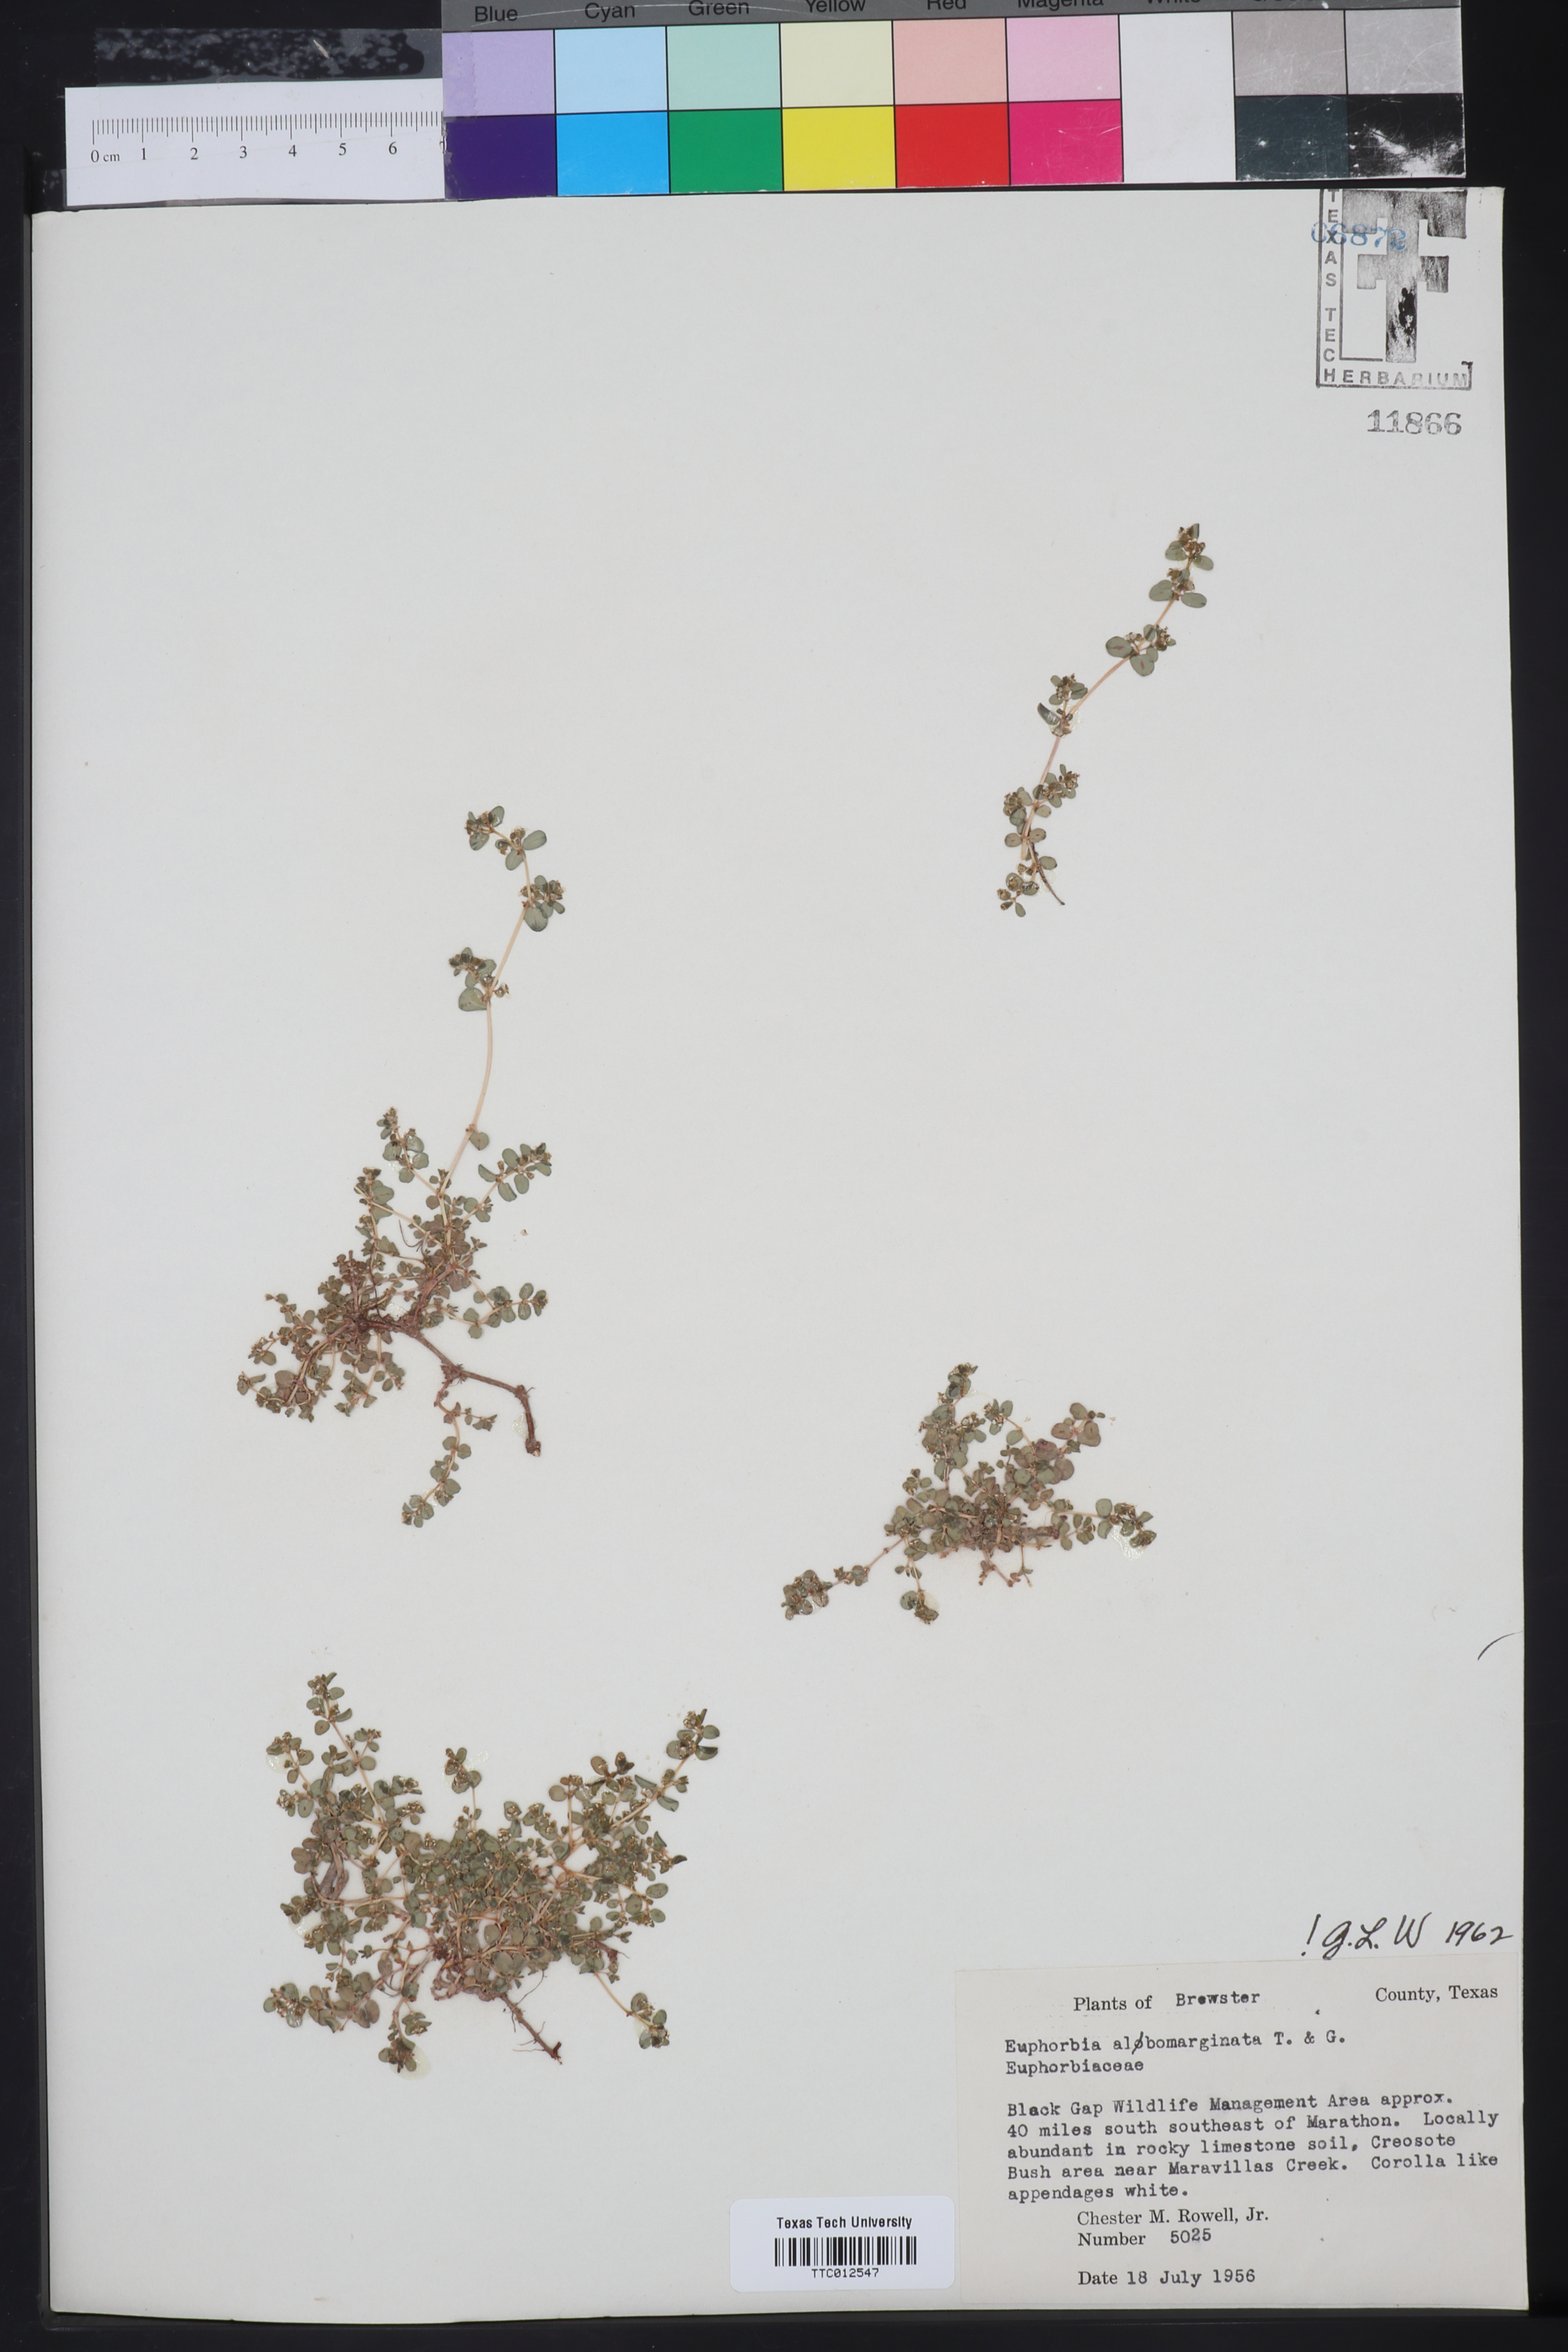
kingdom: Plantae
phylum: Tracheophyta
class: Magnoliopsida
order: Malpighiales
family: Euphorbiaceae
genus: Euphorbia
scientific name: Euphorbia albomarginata
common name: Whitemargin sandmat
